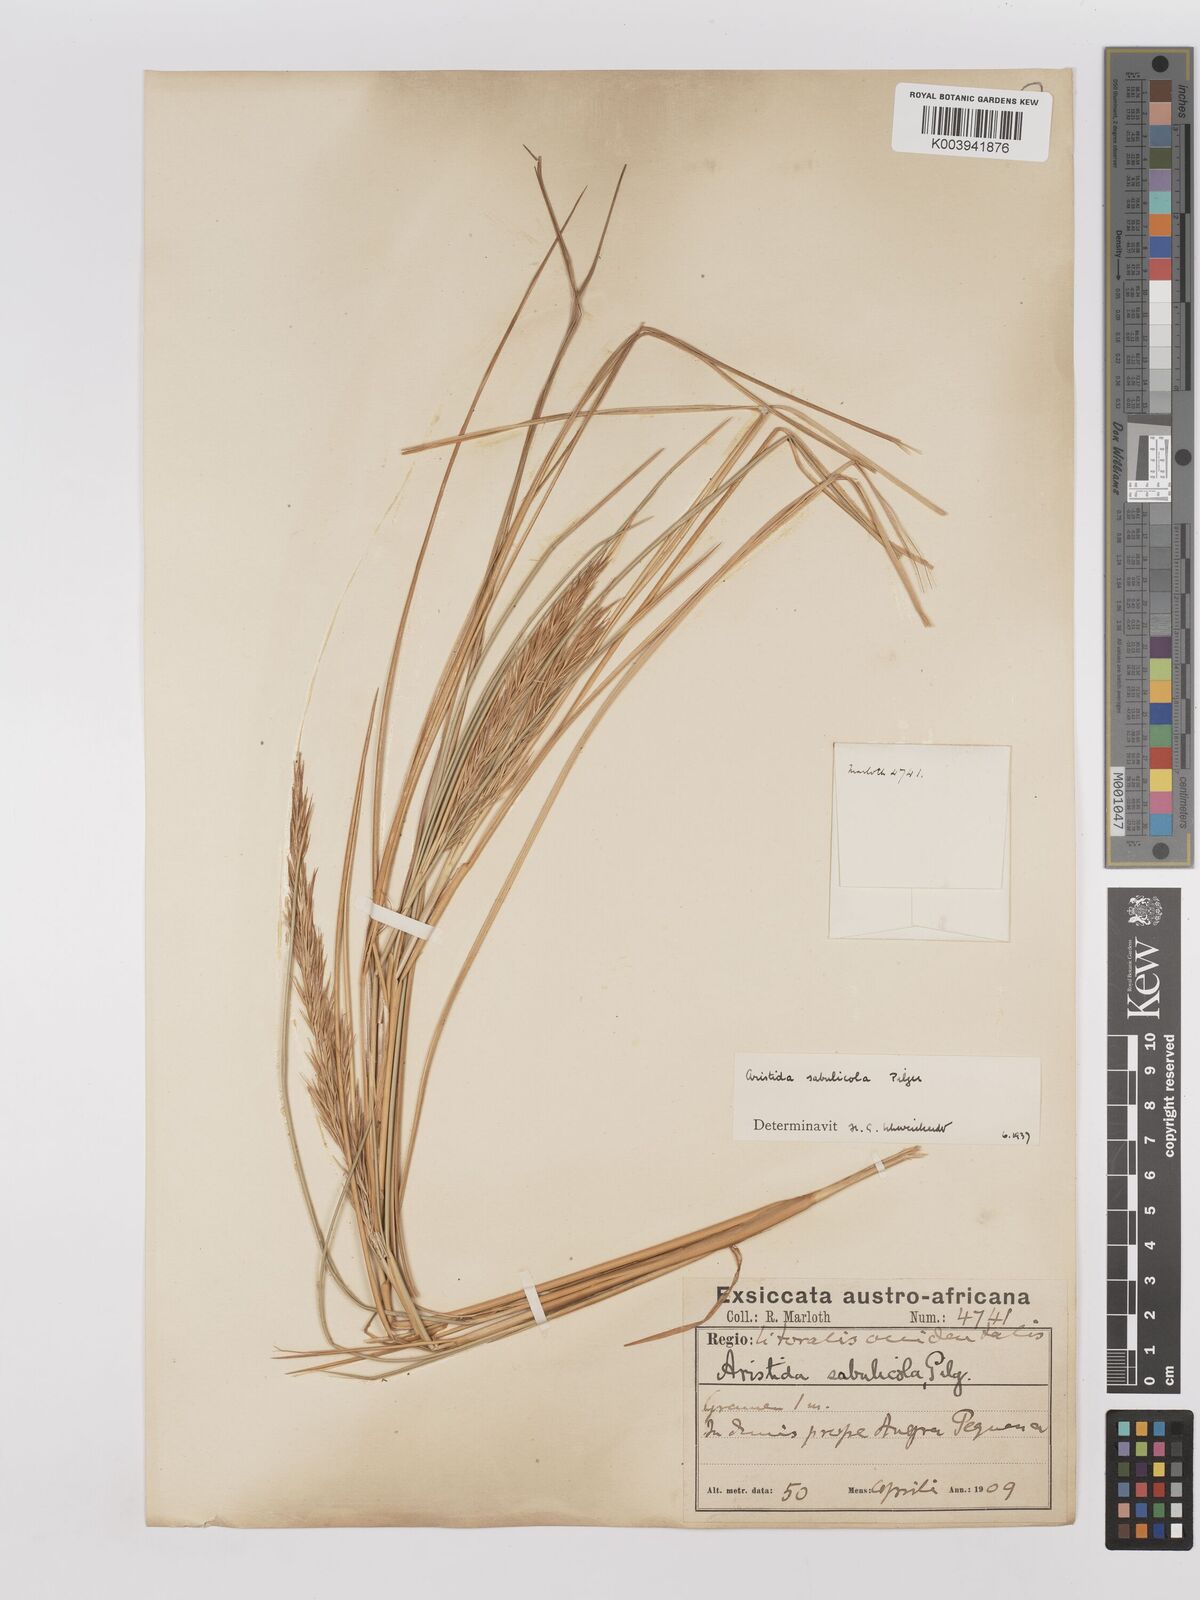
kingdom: Plantae
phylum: Tracheophyta
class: Liliopsida
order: Poales
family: Poaceae
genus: Stipagrostis
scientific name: Stipagrostis sabulicola
